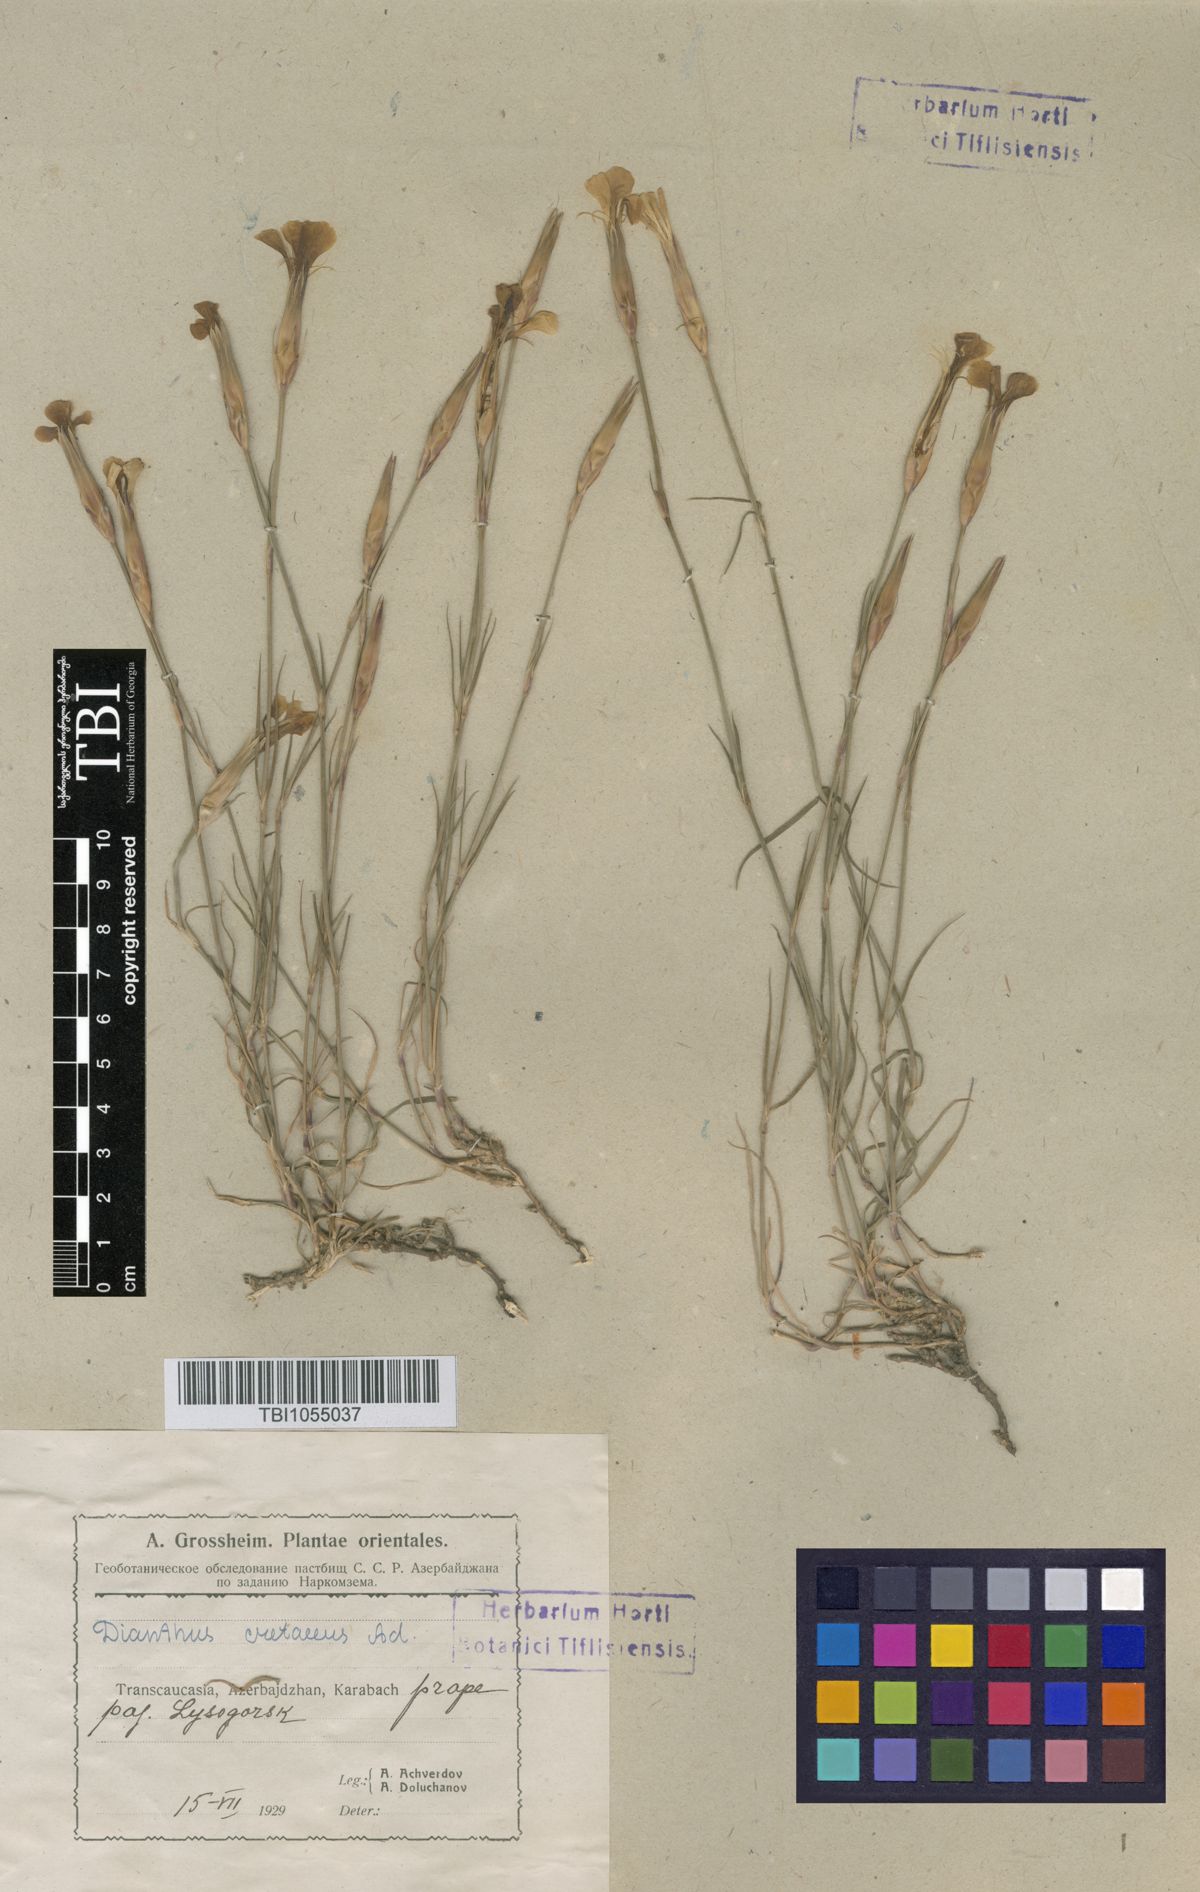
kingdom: Plantae
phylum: Tracheophyta
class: Magnoliopsida
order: Caryophyllales
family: Caryophyllaceae
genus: Dianthus
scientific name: Dianthus cretaceus
